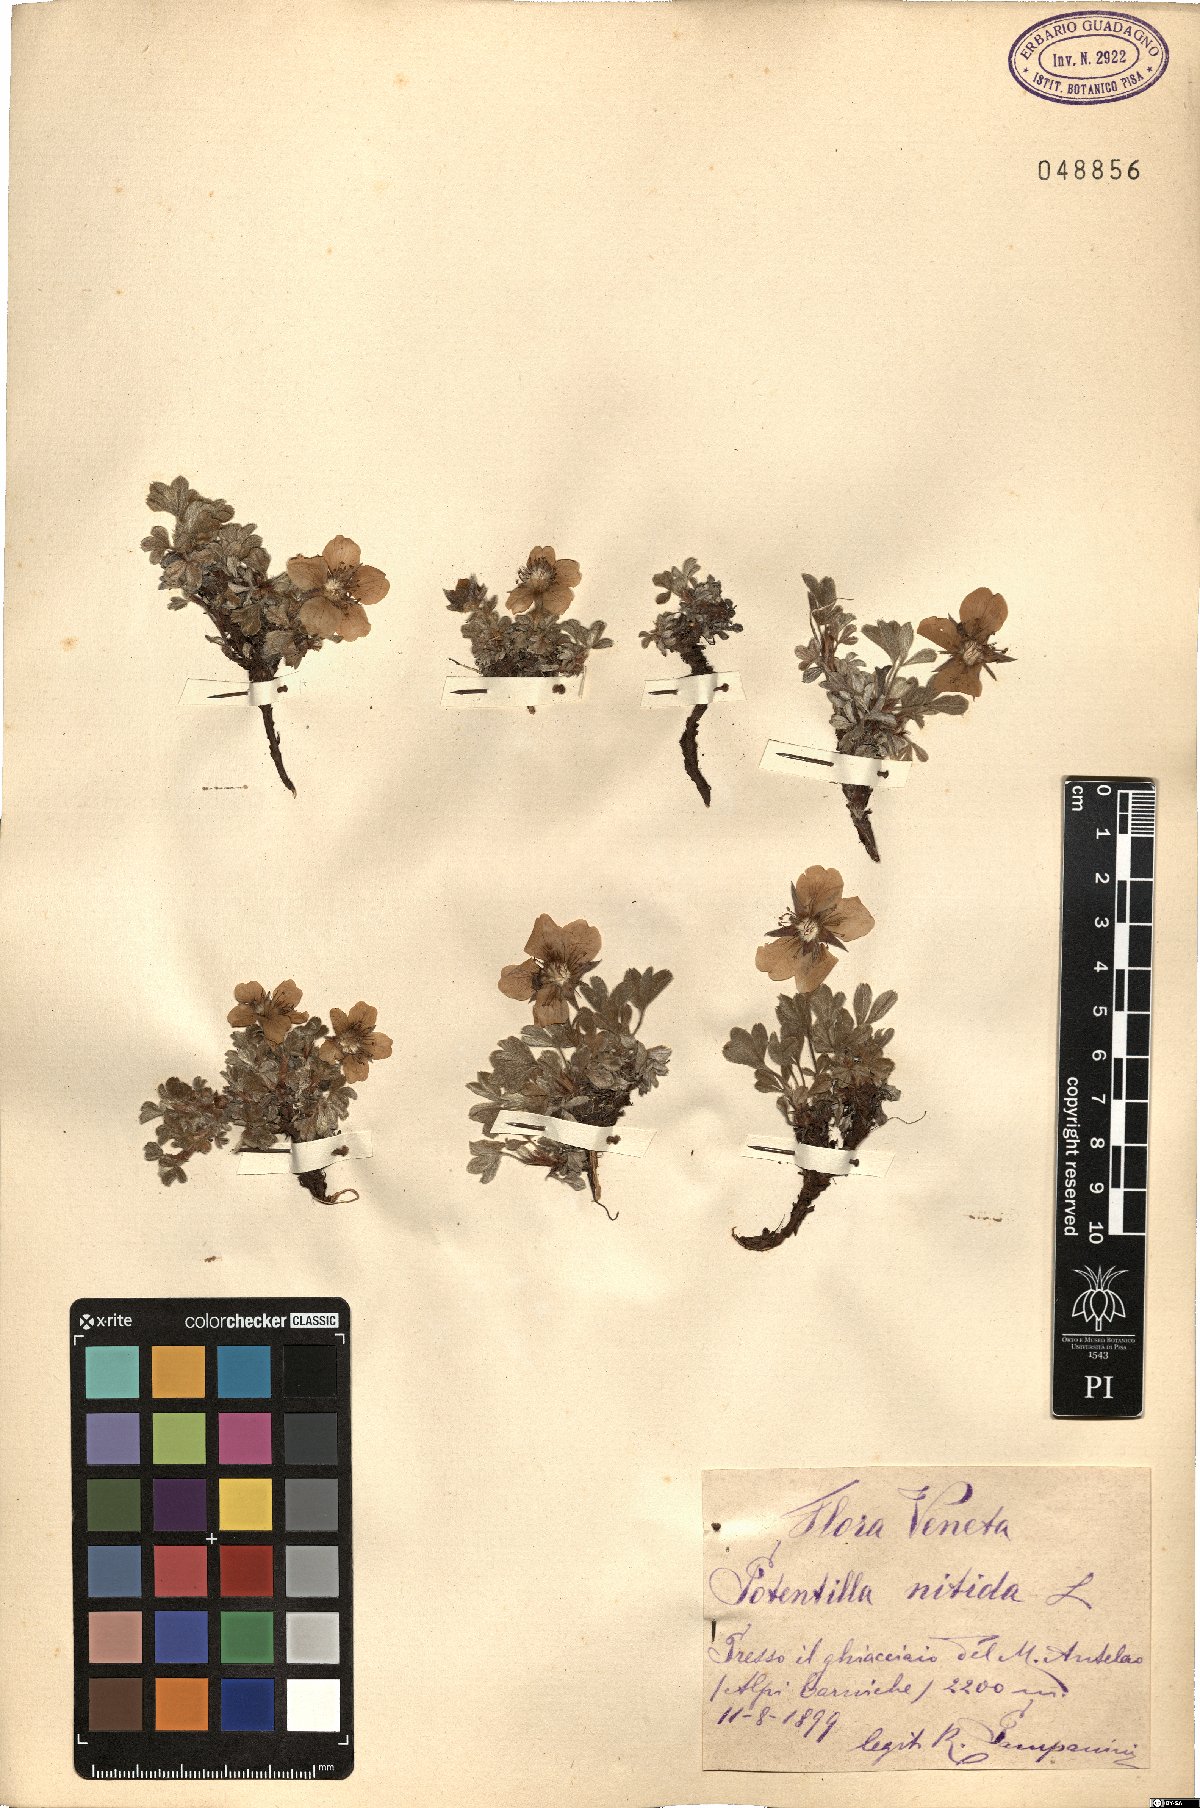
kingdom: Plantae
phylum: Tracheophyta
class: Magnoliopsida
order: Rosales
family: Rosaceae
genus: Potentilla
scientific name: Potentilla nitida
